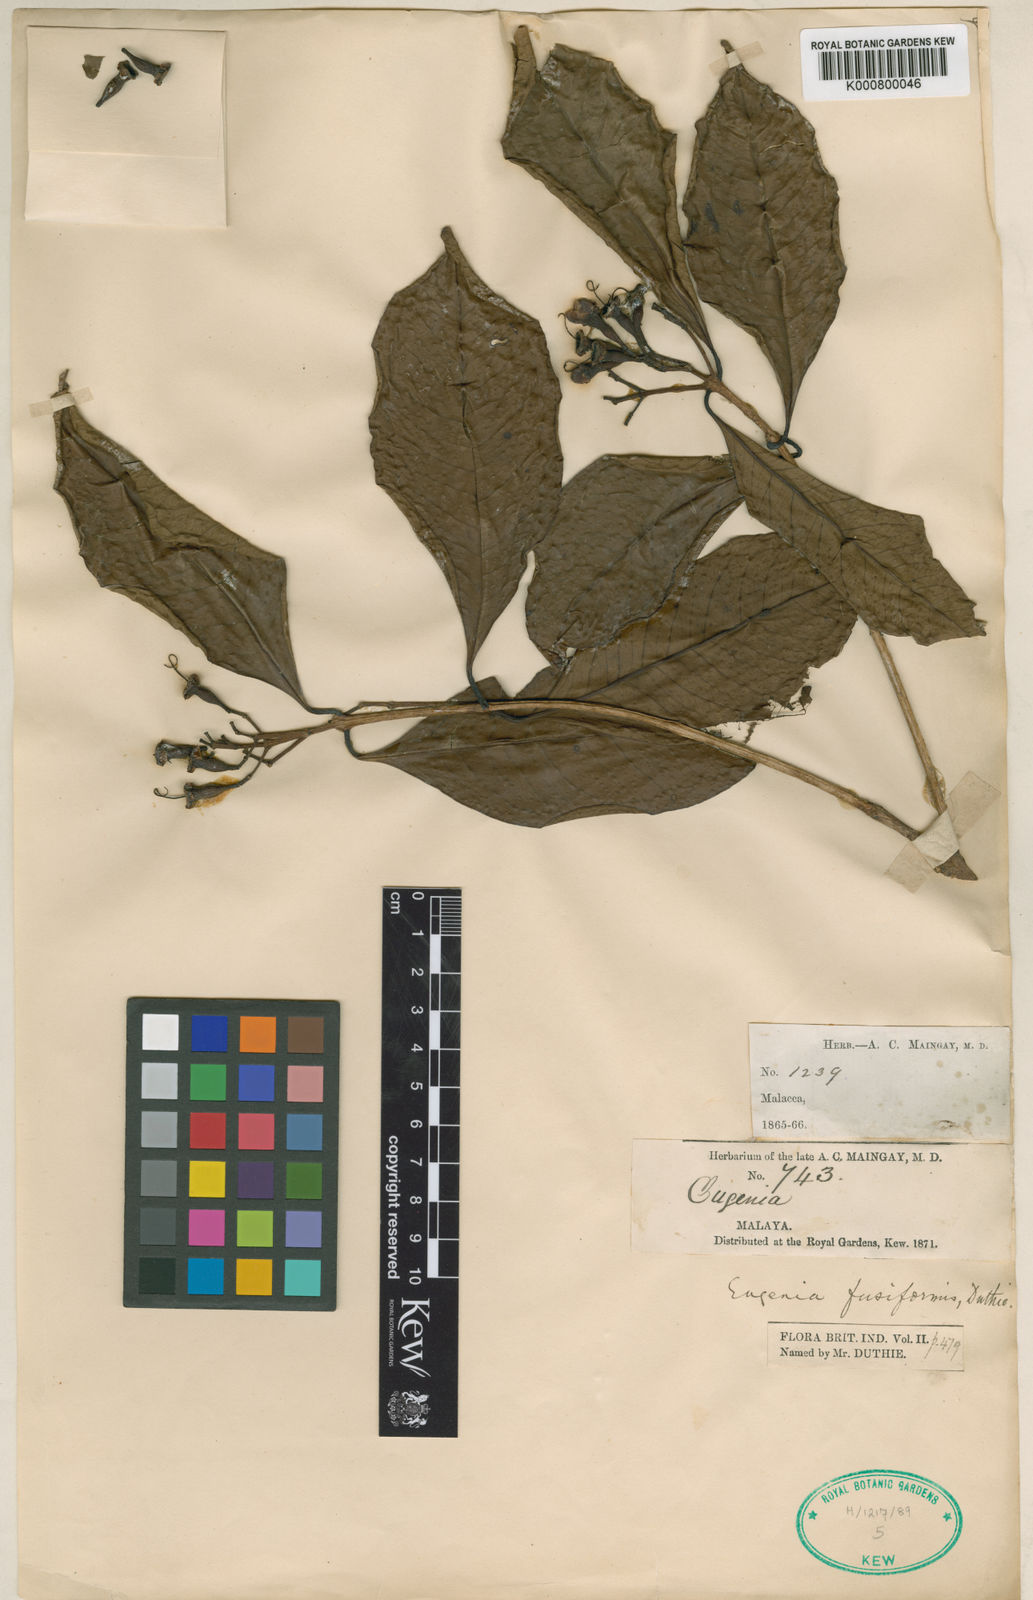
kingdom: Plantae
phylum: Tracheophyta
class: Magnoliopsida
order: Myrtales
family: Myrtaceae
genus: Syzygium
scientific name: Syzygium glabratum
